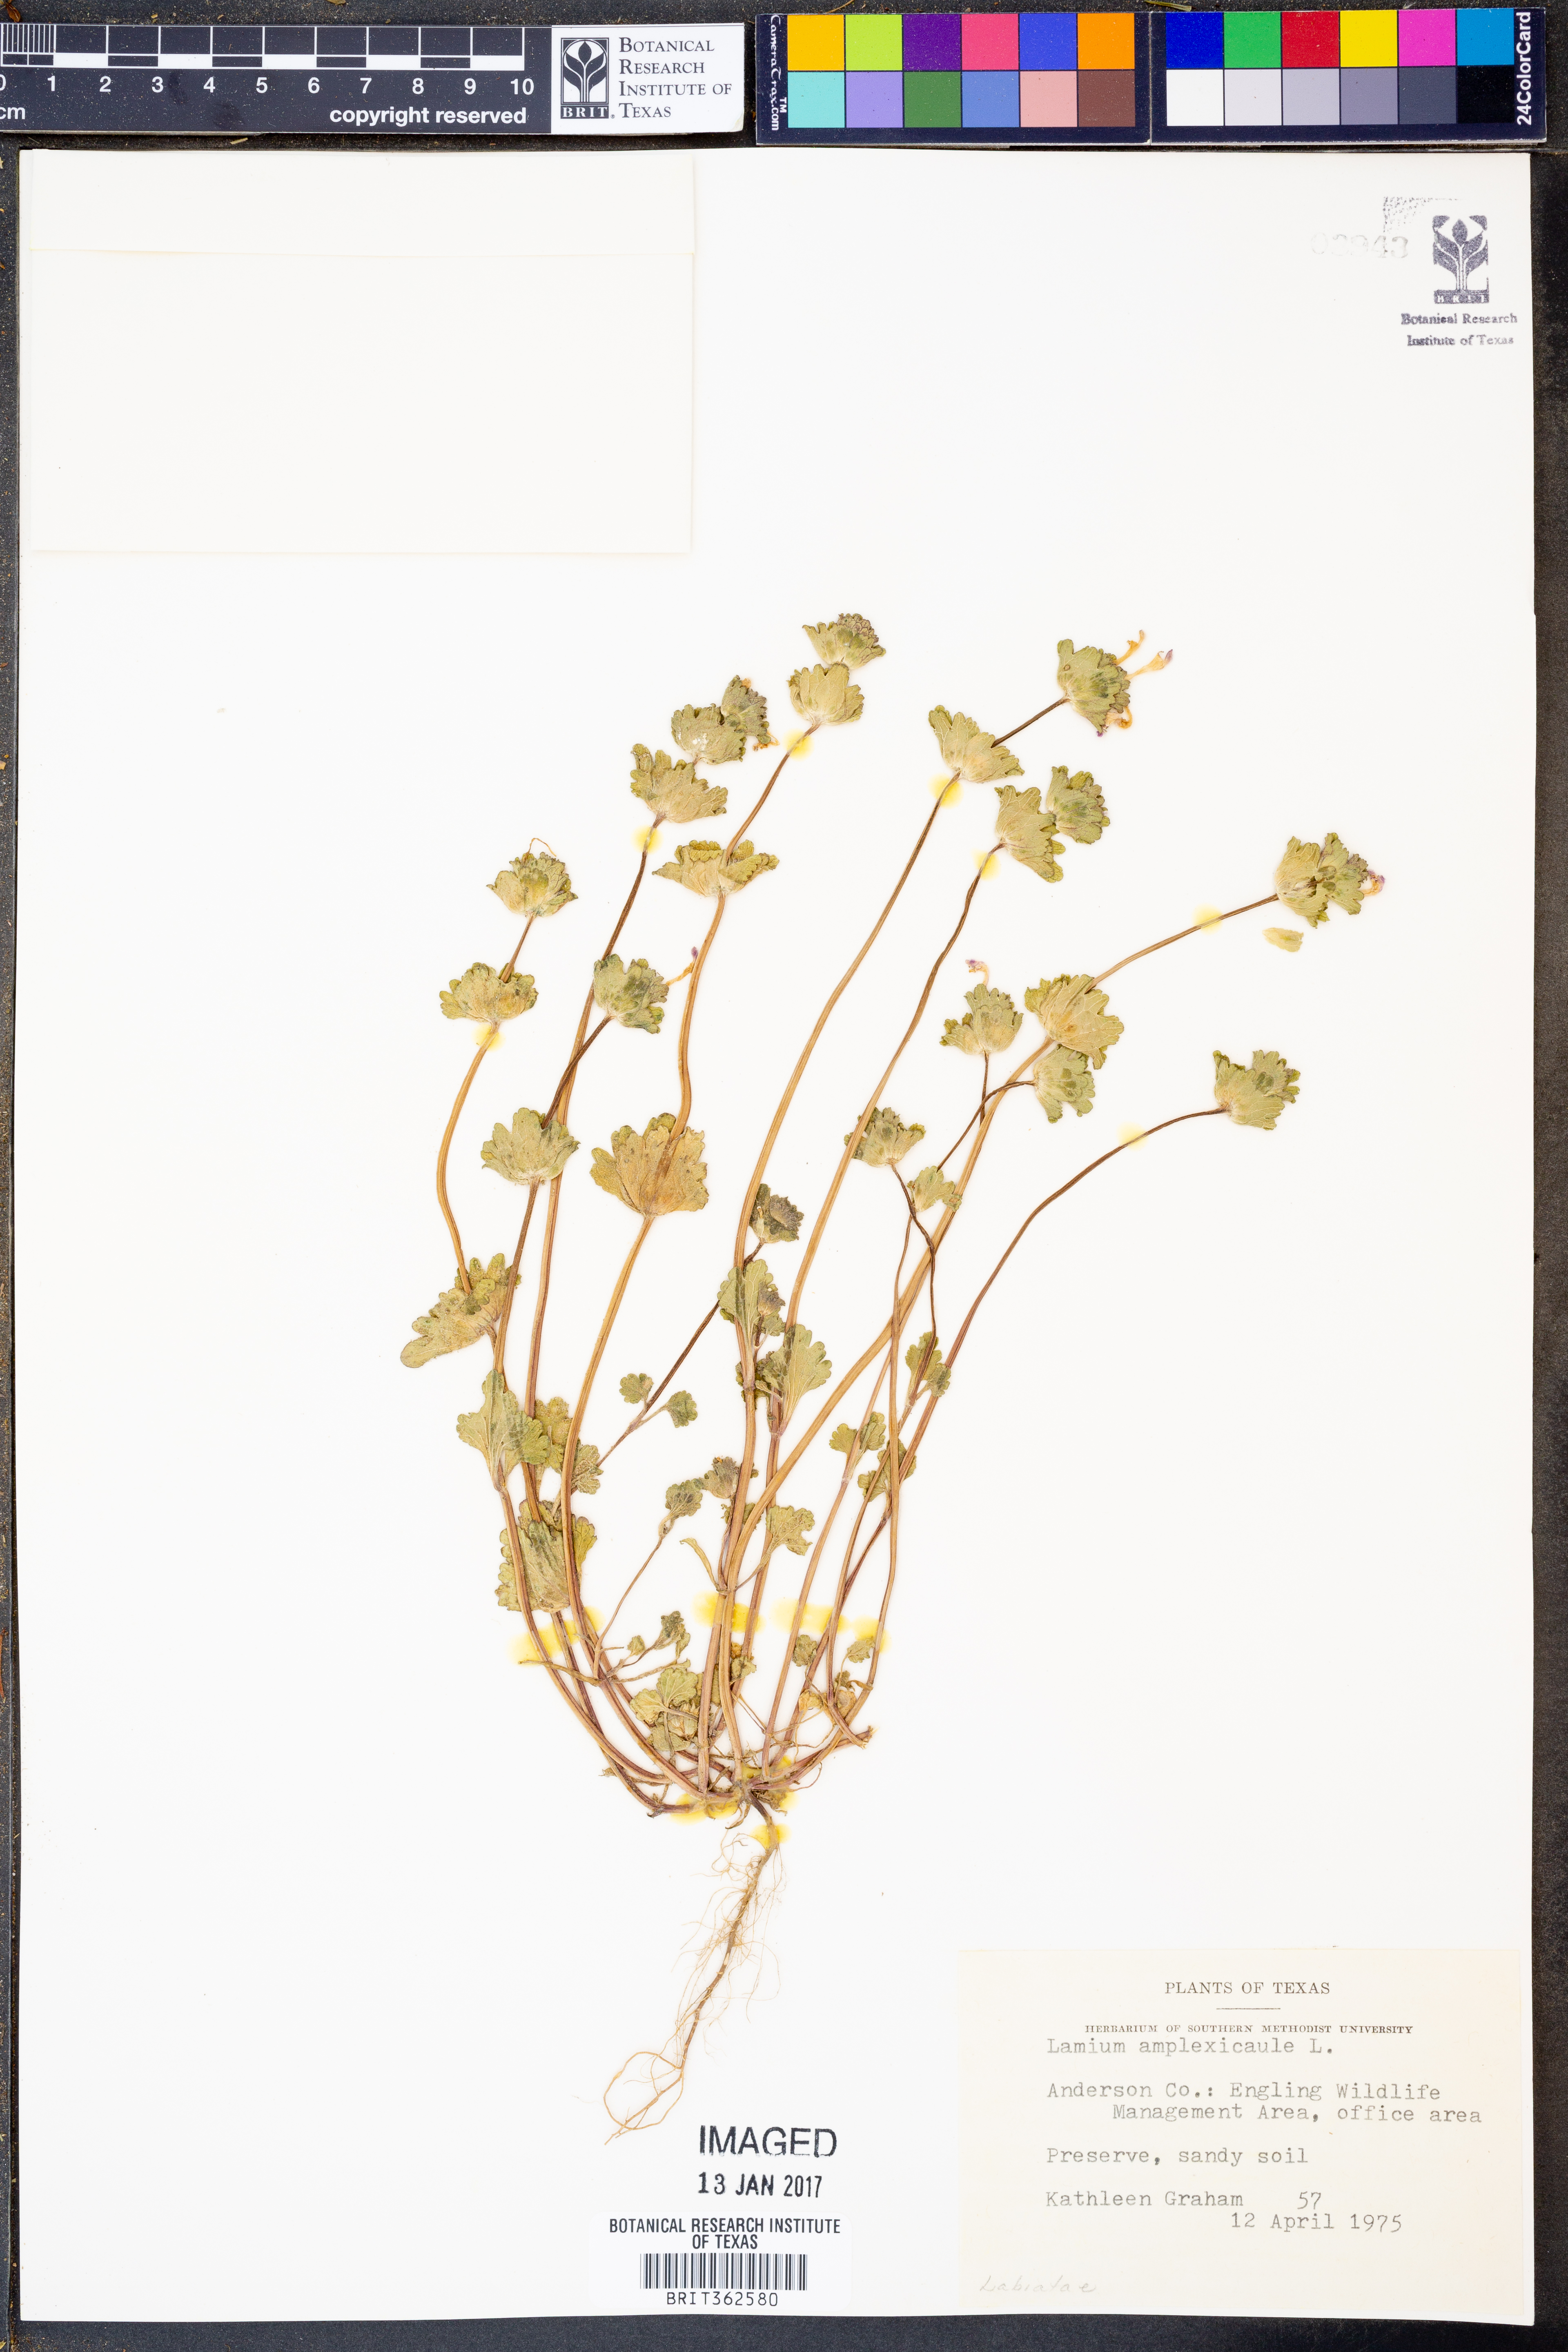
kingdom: Plantae
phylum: Tracheophyta
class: Magnoliopsida
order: Lamiales
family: Lamiaceae
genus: Lamium
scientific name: Lamium amplexicaule
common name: Henbit dead-nettle
